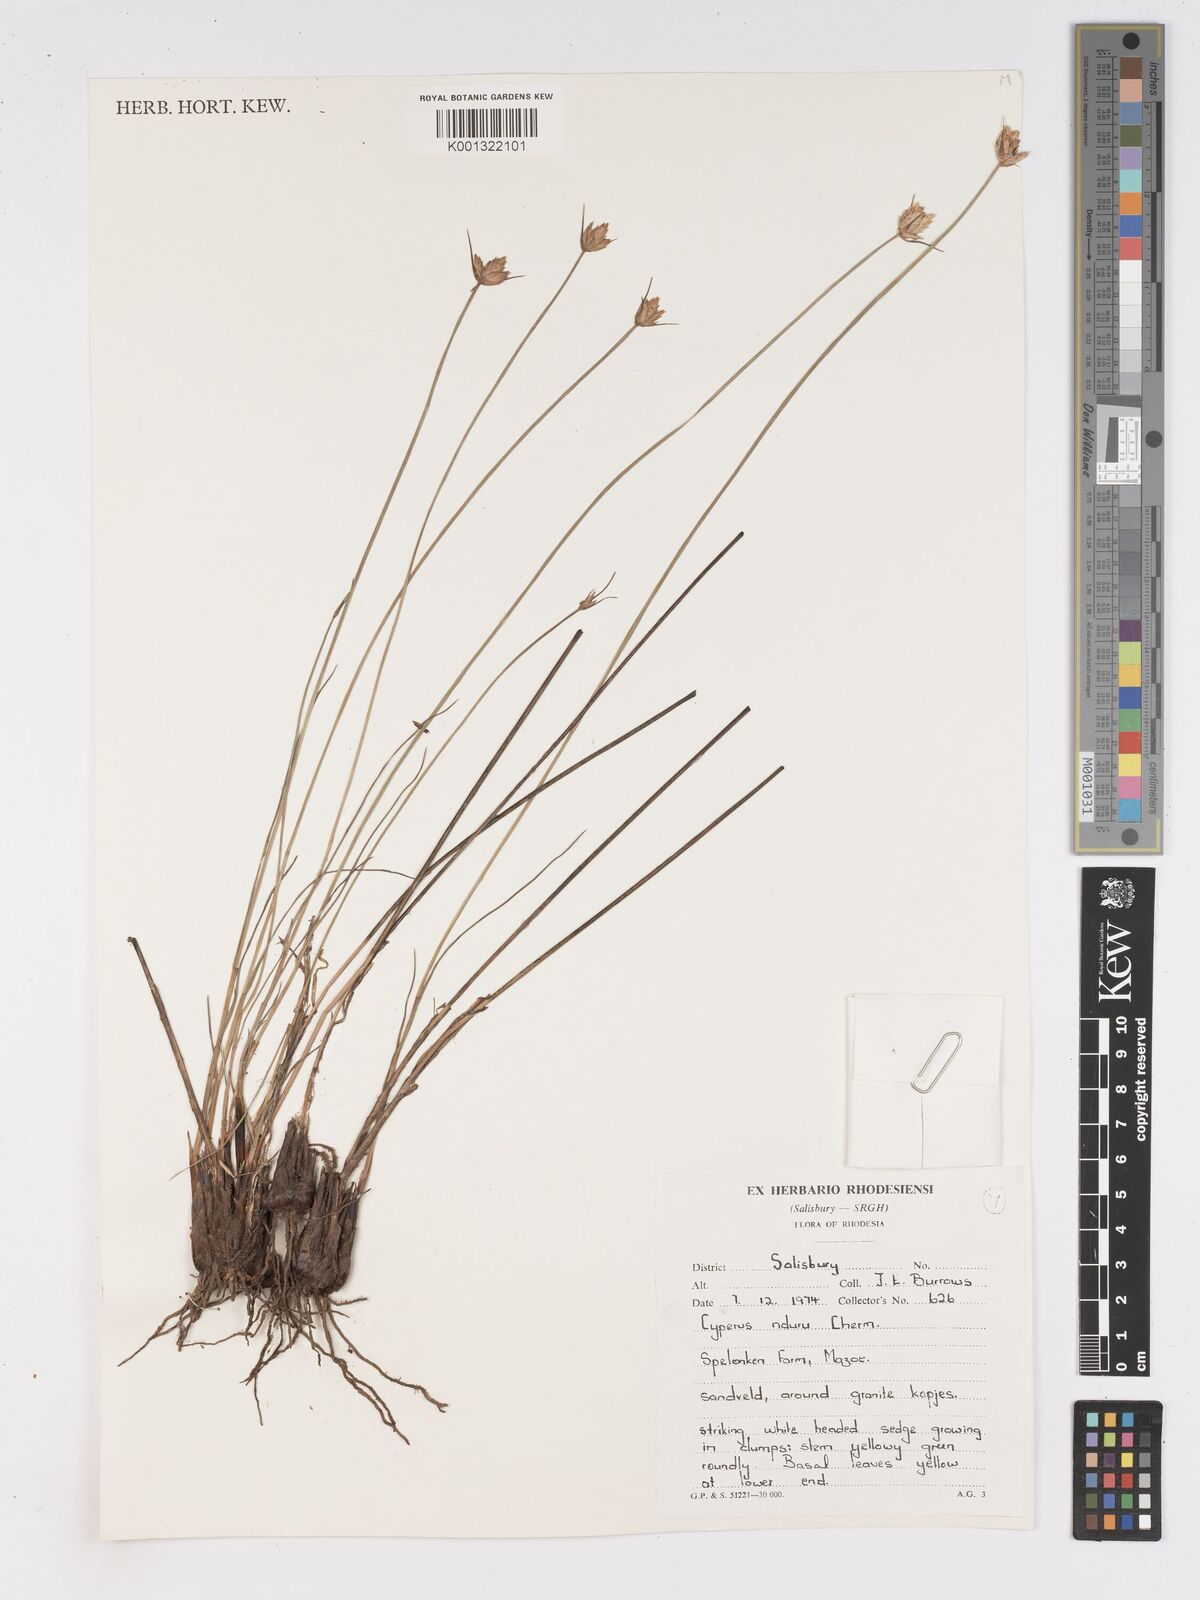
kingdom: Plantae
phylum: Tracheophyta
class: Liliopsida
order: Poales
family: Cyperaceae
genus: Cyperus
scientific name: Cyperus nduru
